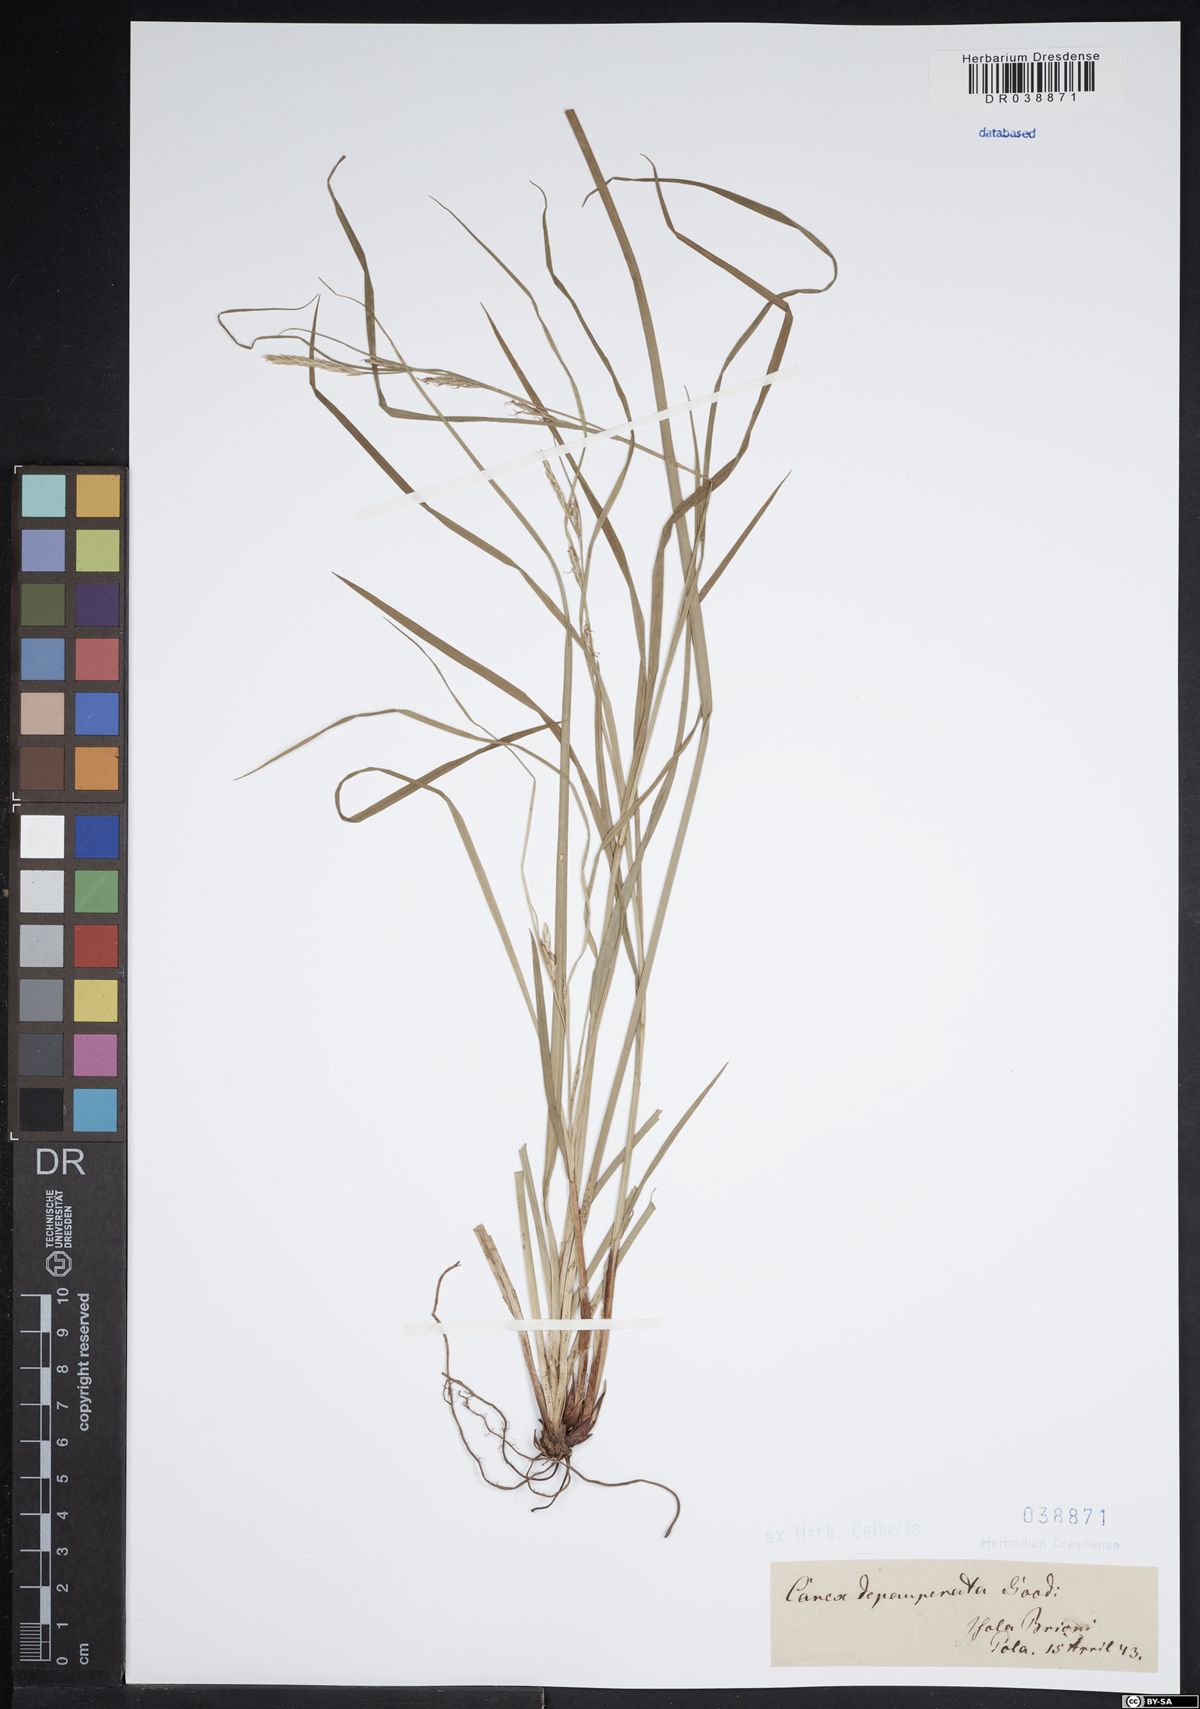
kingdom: Plantae
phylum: Tracheophyta
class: Liliopsida
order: Poales
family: Cyperaceae
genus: Carex
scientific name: Carex depauperata
